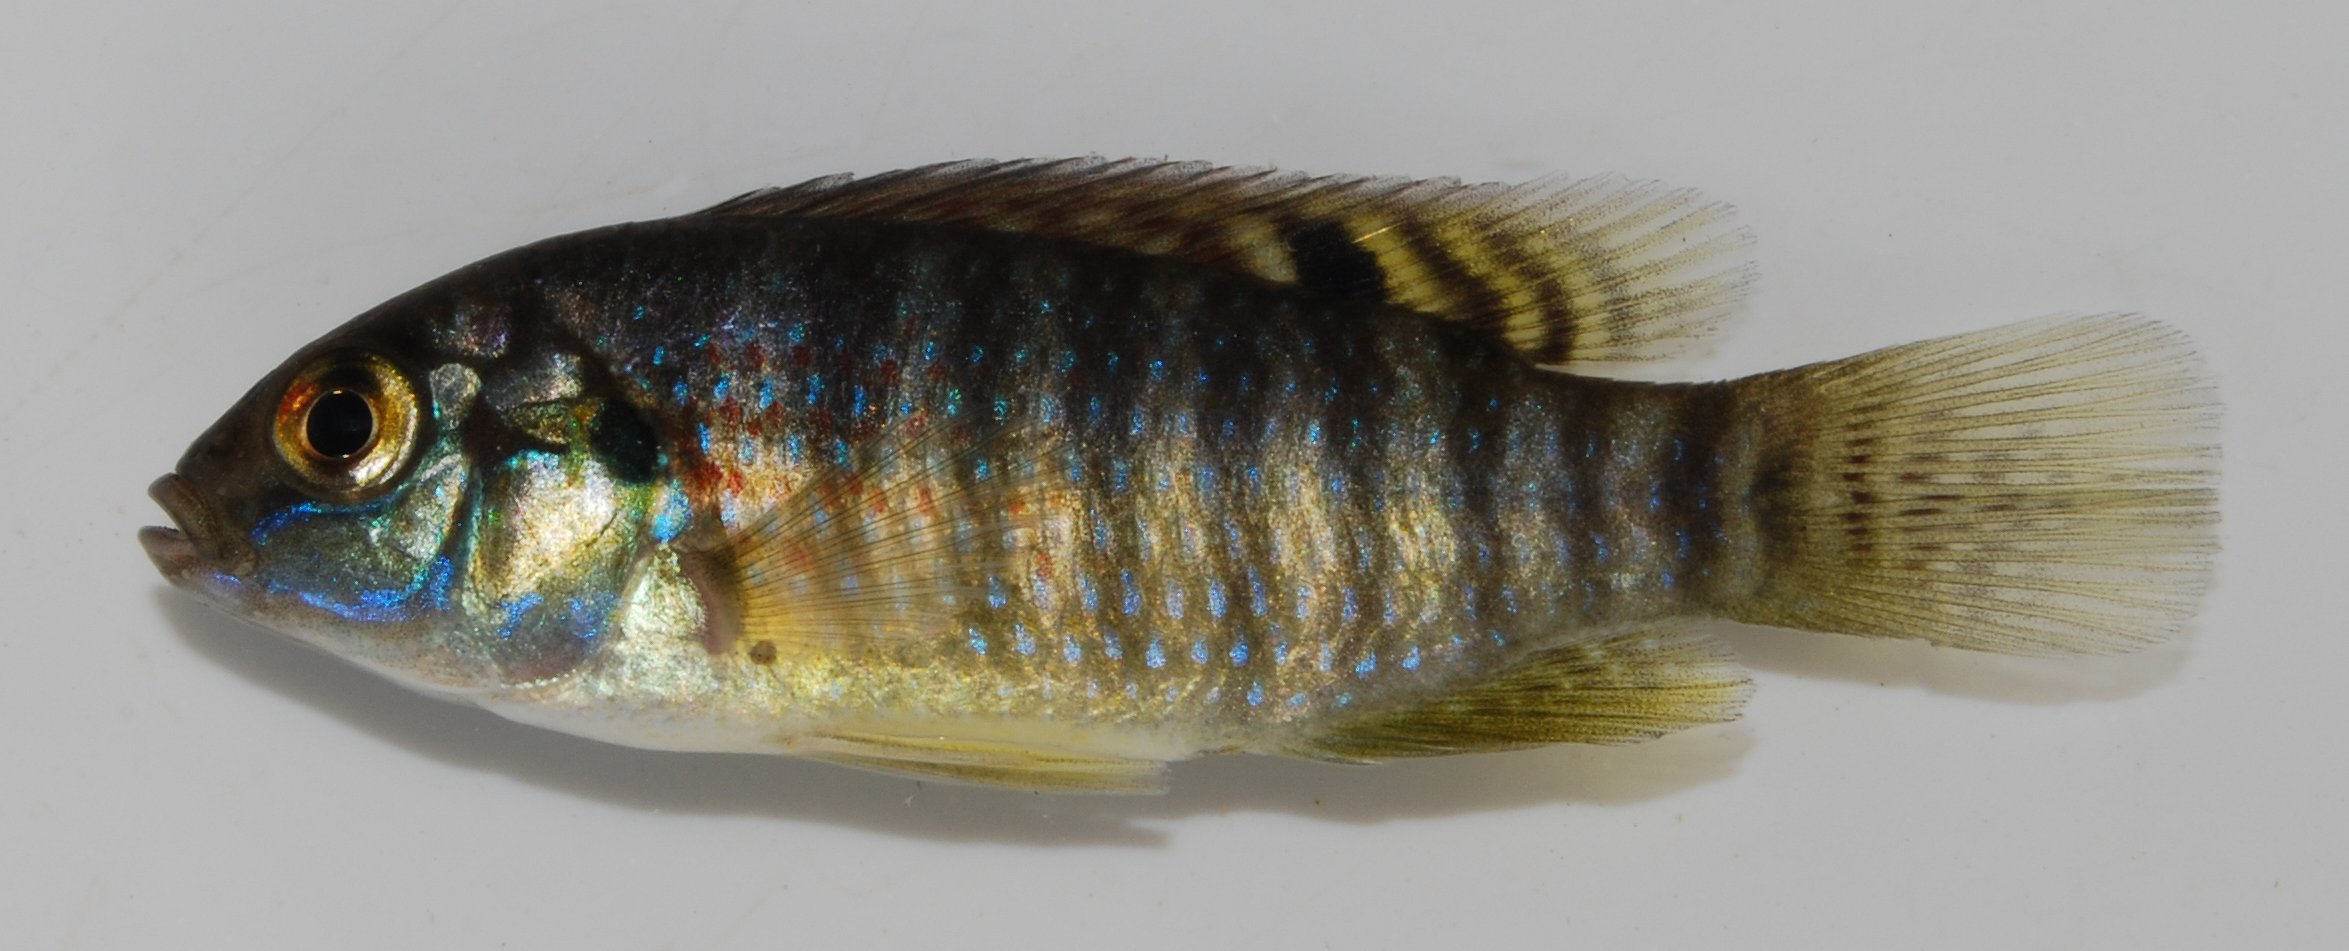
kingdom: Animalia
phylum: Chordata
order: Perciformes
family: Cichlidae
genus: Tilapia
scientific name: Tilapia ruweti
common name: Okavango tilapia
